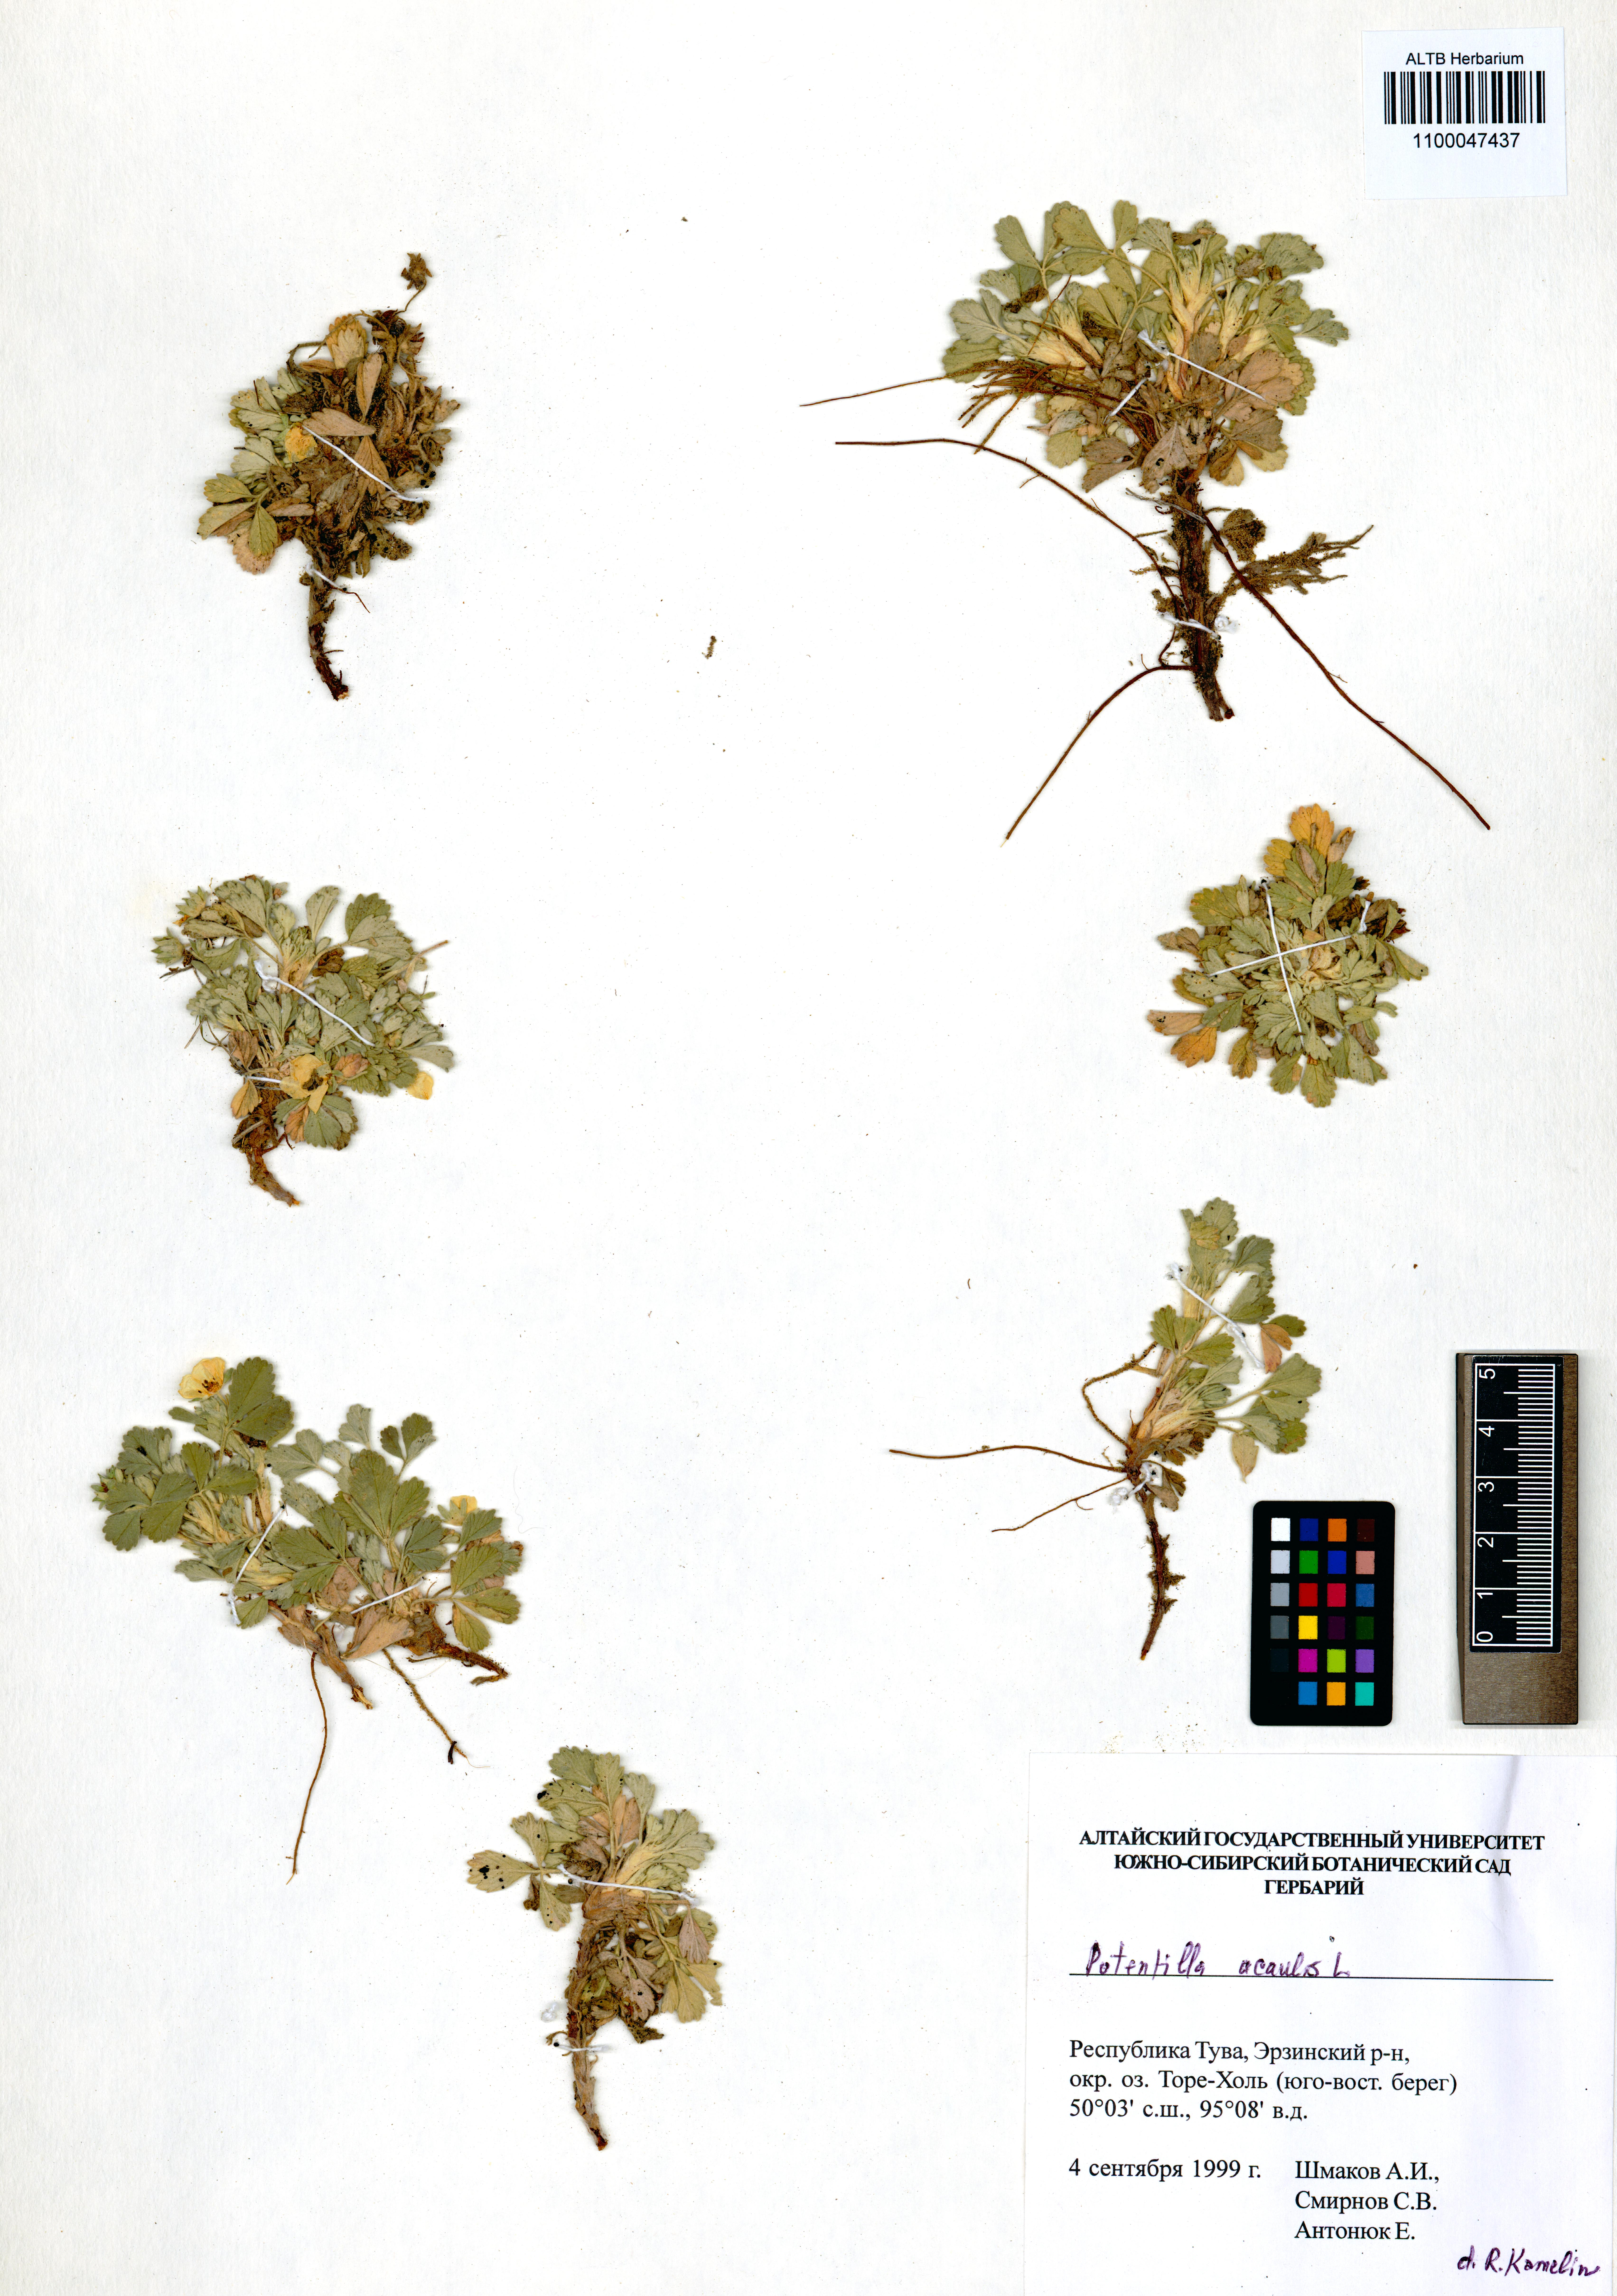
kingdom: Plantae
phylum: Tracheophyta
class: Magnoliopsida
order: Rosales
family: Rosaceae
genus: Potentilla
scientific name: Potentilla acaulis
